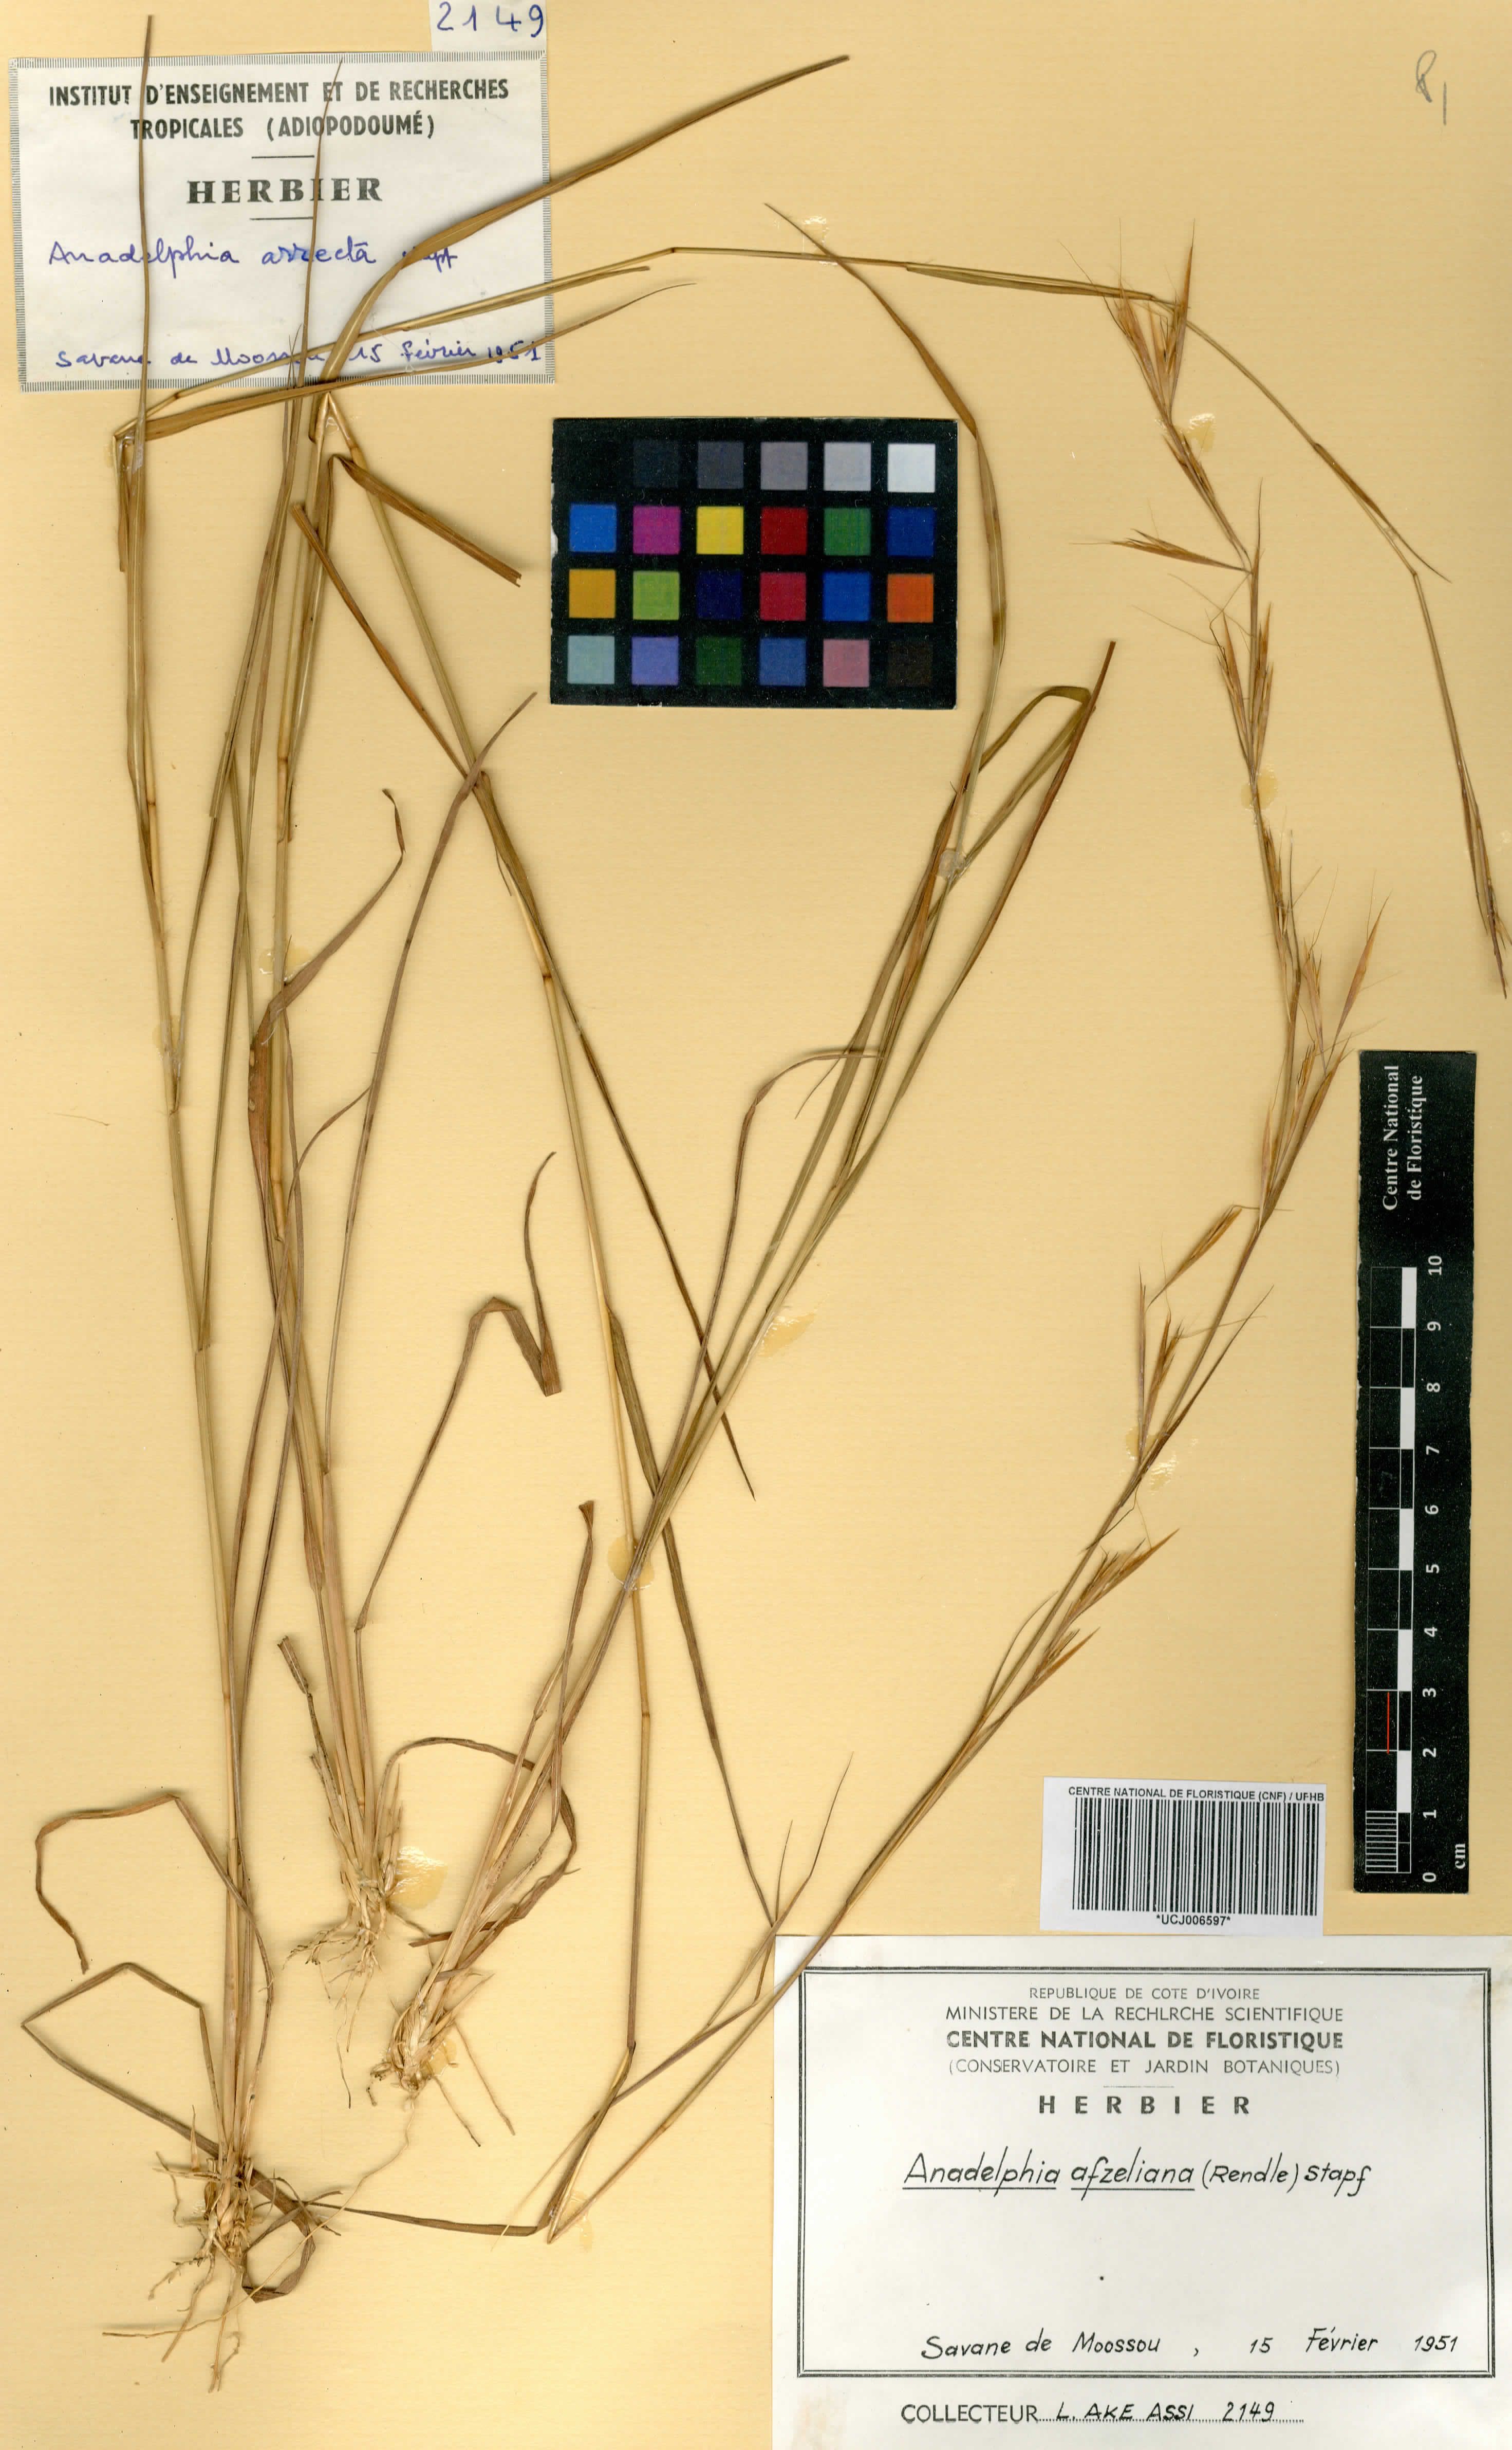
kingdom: Plantae
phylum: Tracheophyta
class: Liliopsida
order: Poales
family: Poaceae
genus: Anadelphia
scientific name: Anadelphia afzeliana
